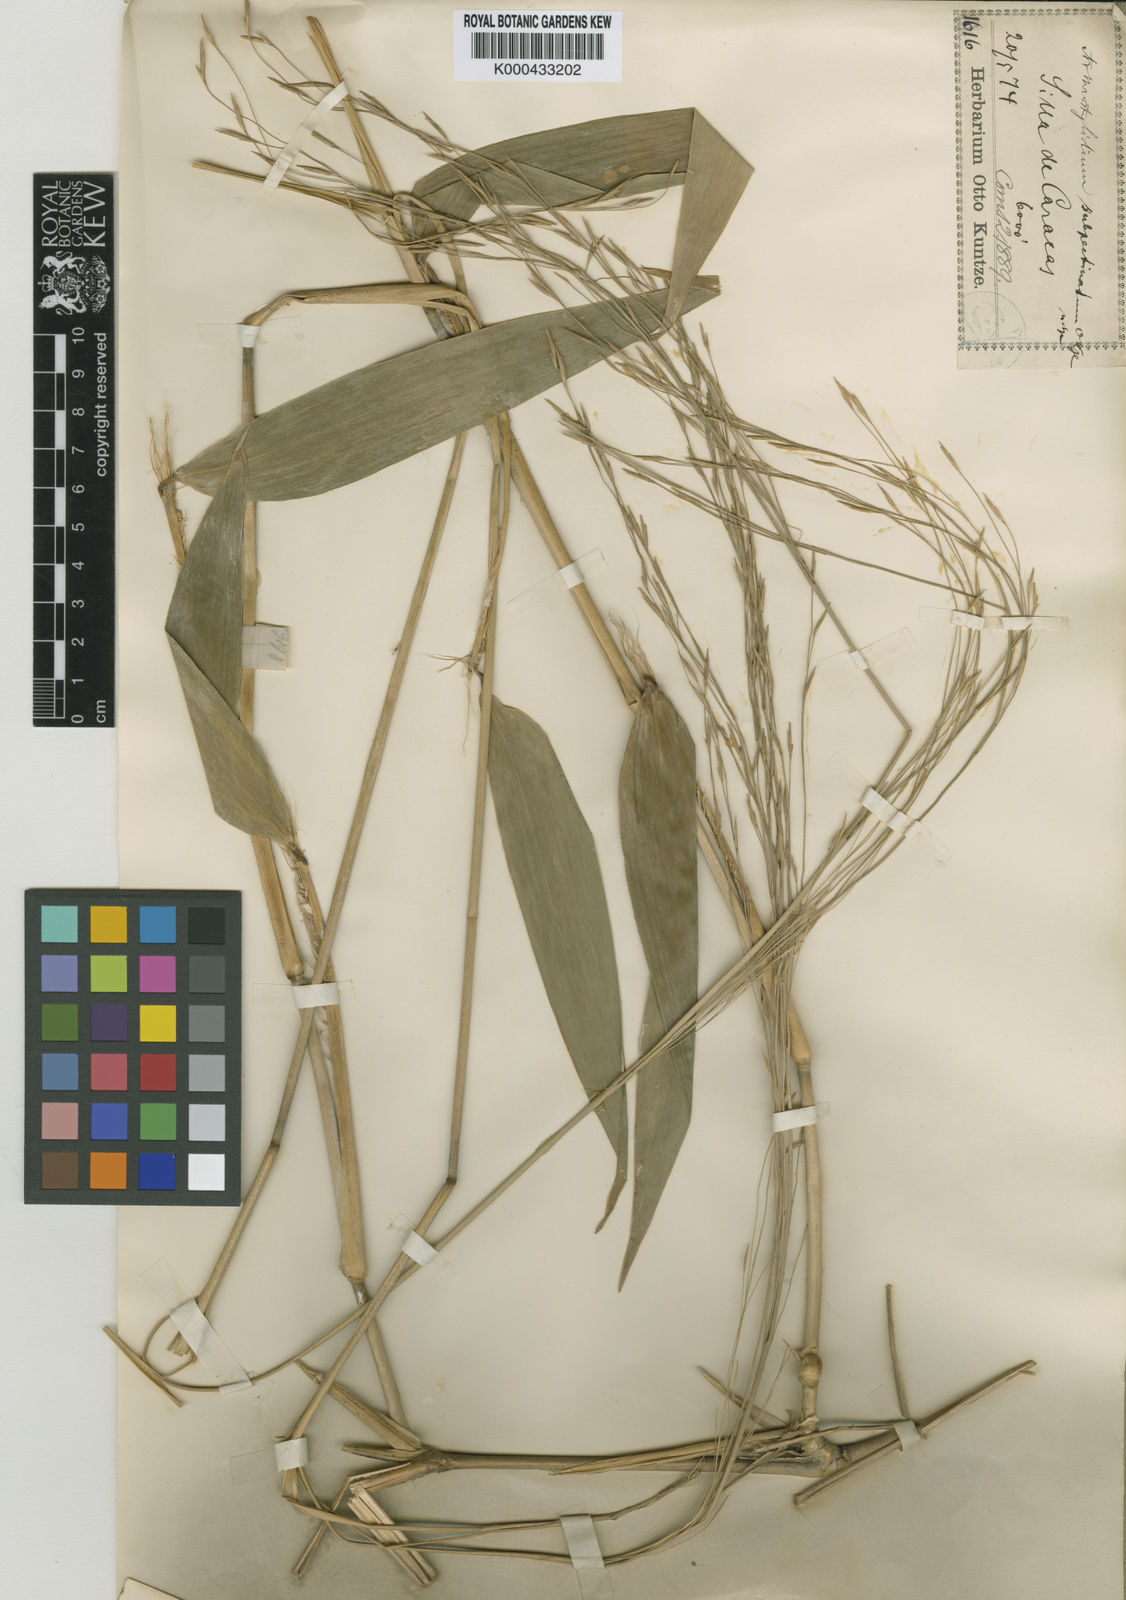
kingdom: Plantae
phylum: Tracheophyta
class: Liliopsida
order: Poales
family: Poaceae
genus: Aulonemia
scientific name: Aulonemia subpectinata
